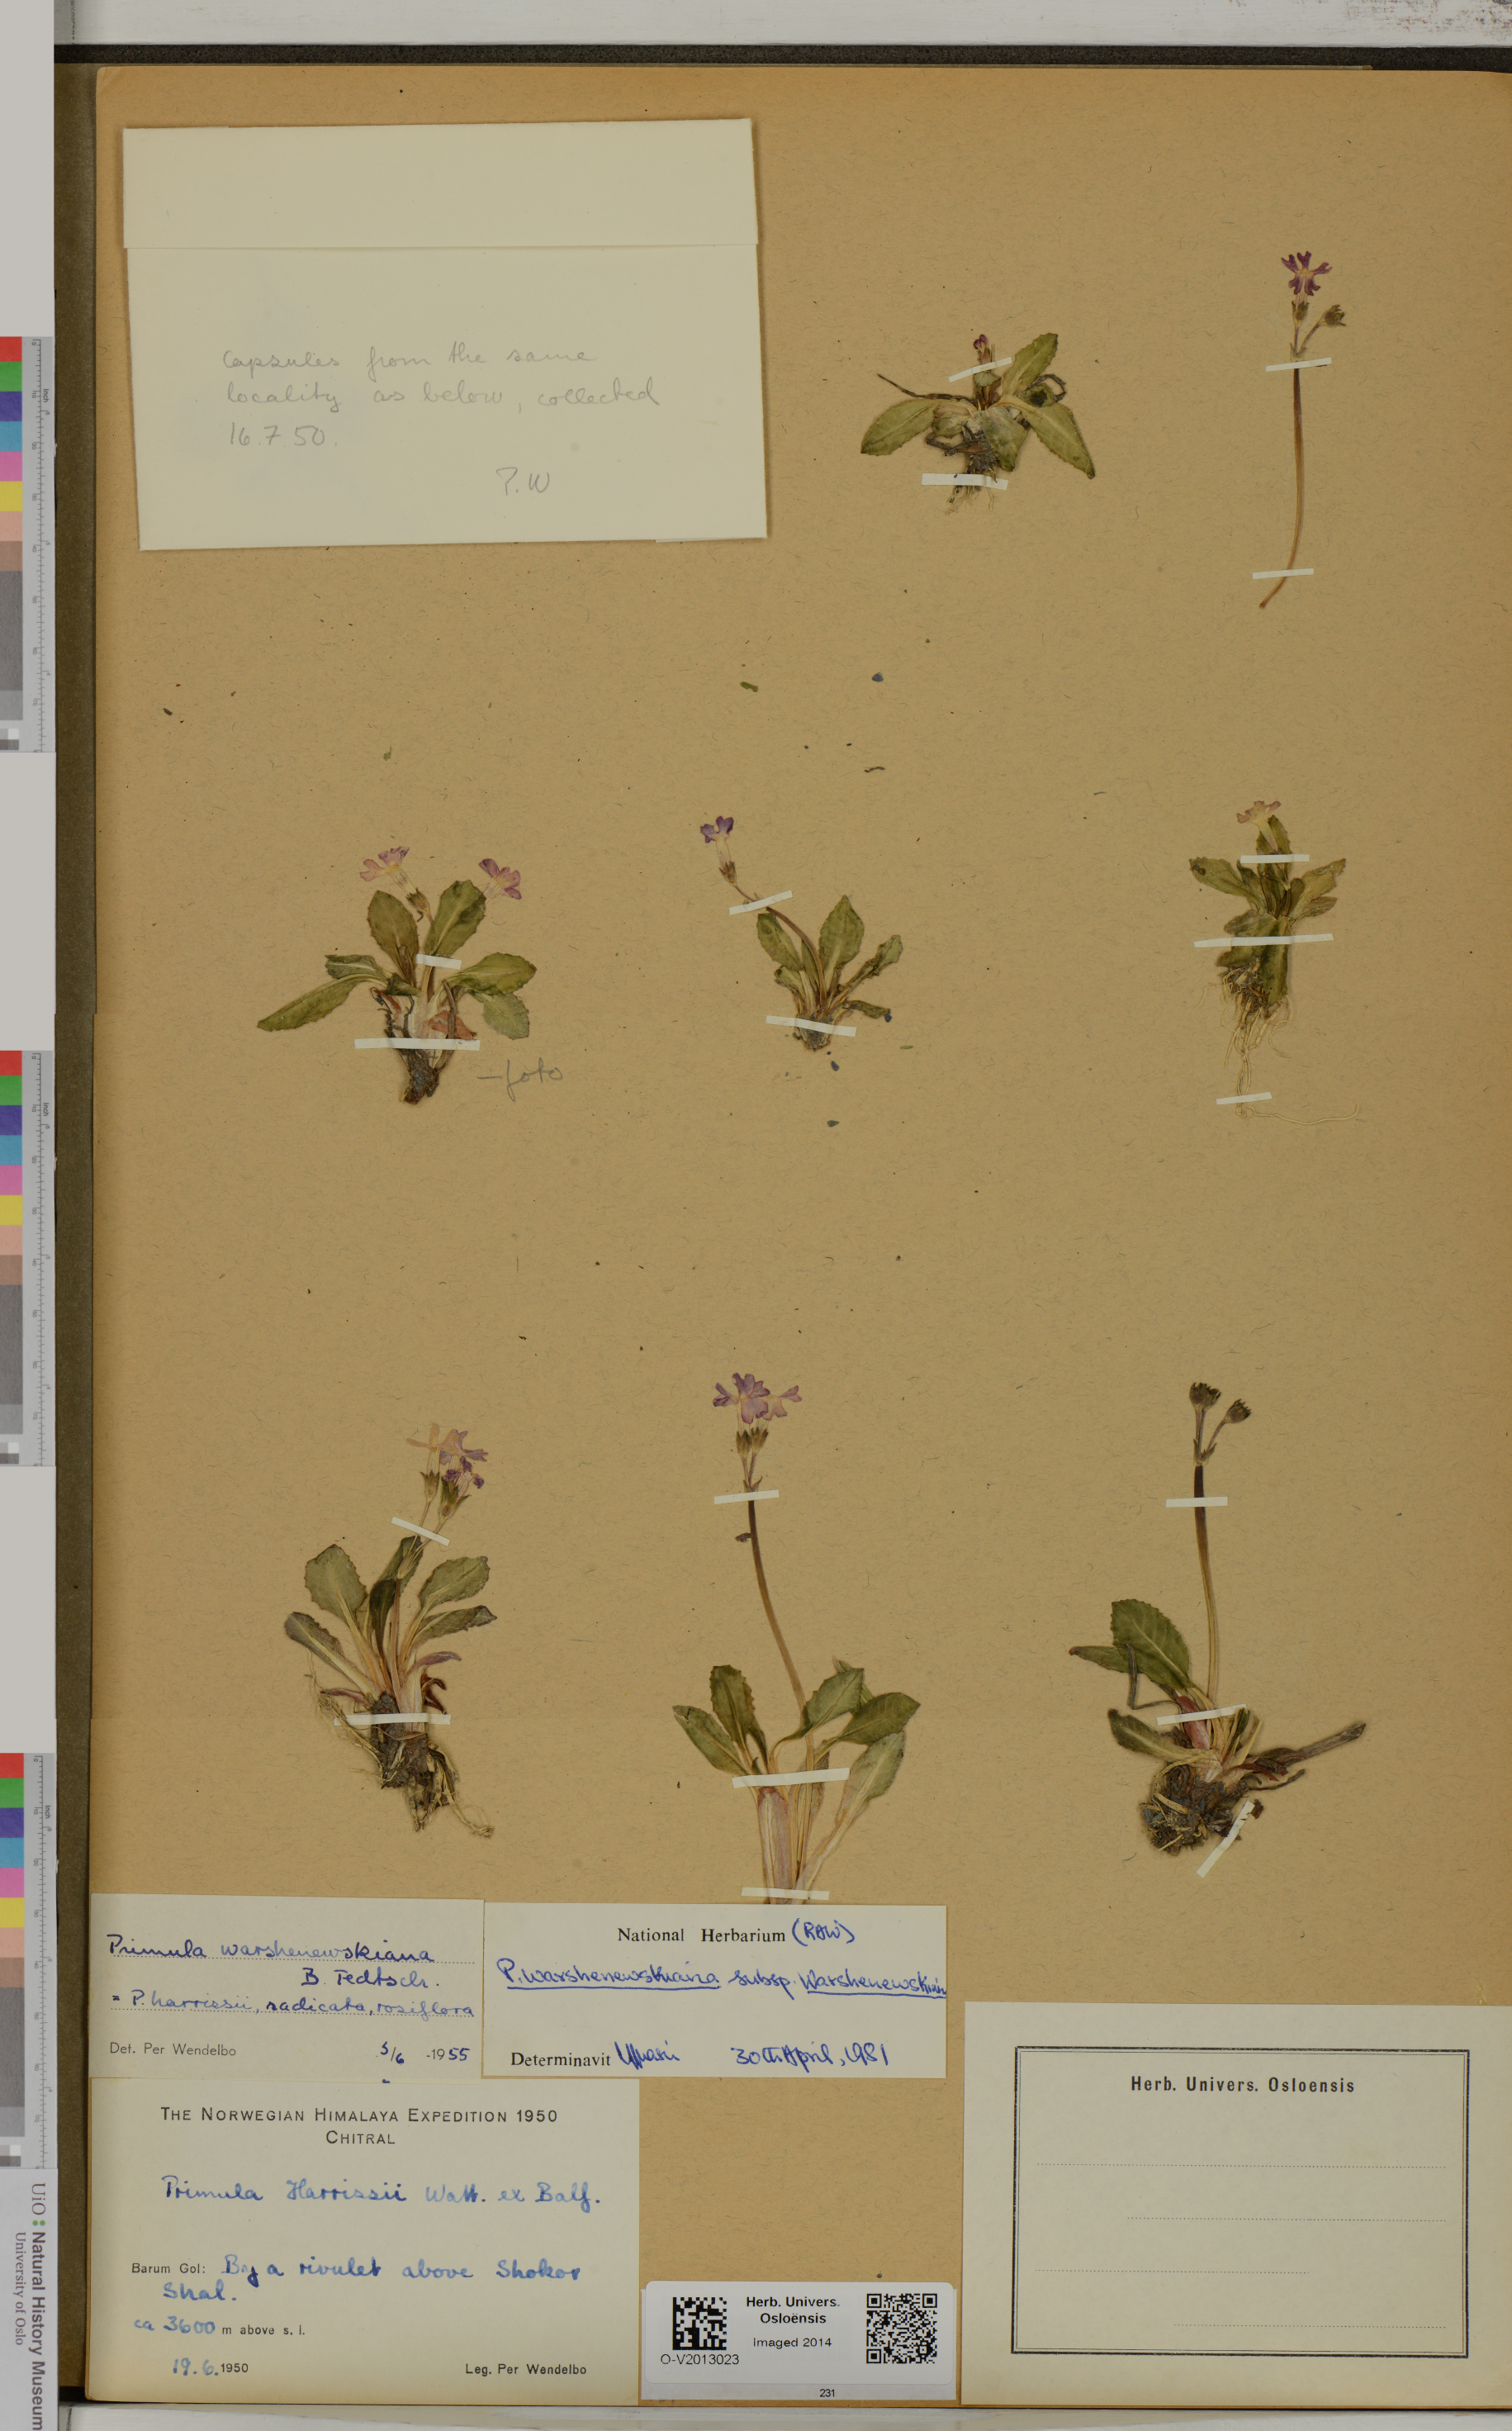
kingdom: Plantae
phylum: Tracheophyta
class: Magnoliopsida
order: Ericales
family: Primulaceae
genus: Primula
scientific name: Primula warshenewskiana
